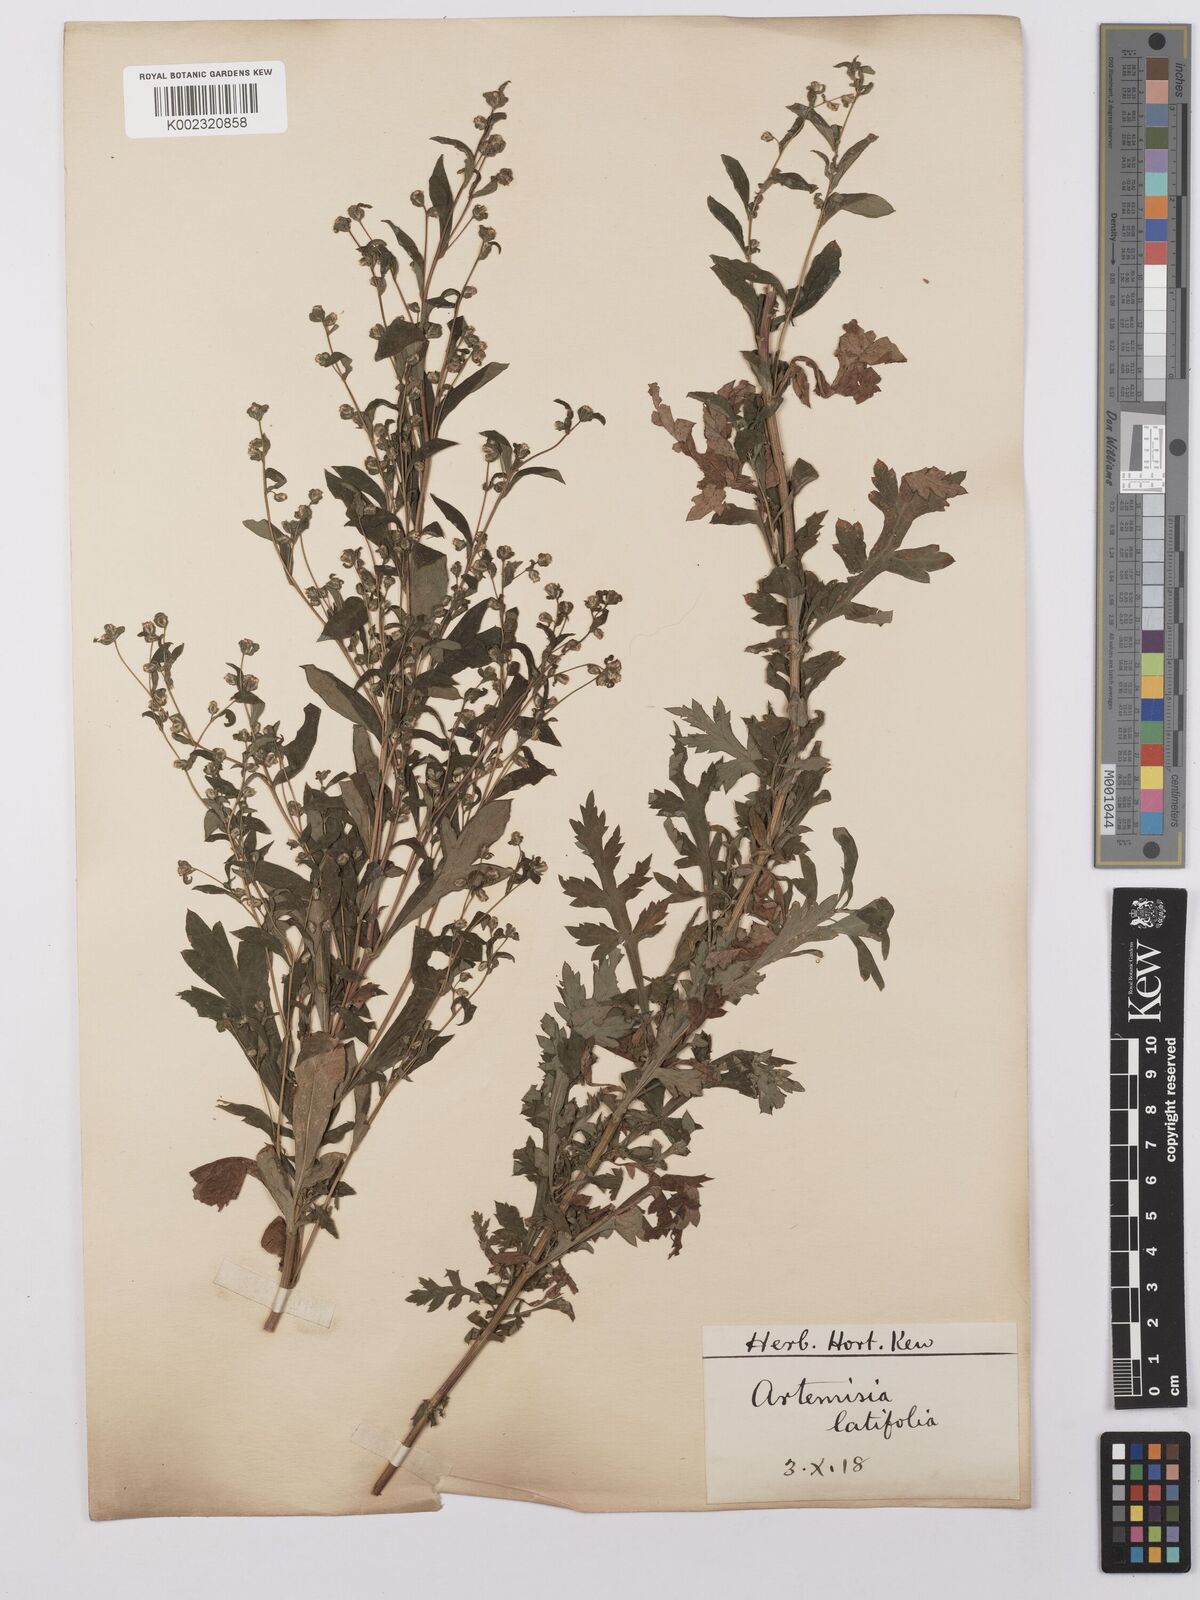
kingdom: Plantae
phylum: Tracheophyta
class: Magnoliopsida
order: Asterales
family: Asteraceae
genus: Artemisia
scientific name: Artemisia latifolia
